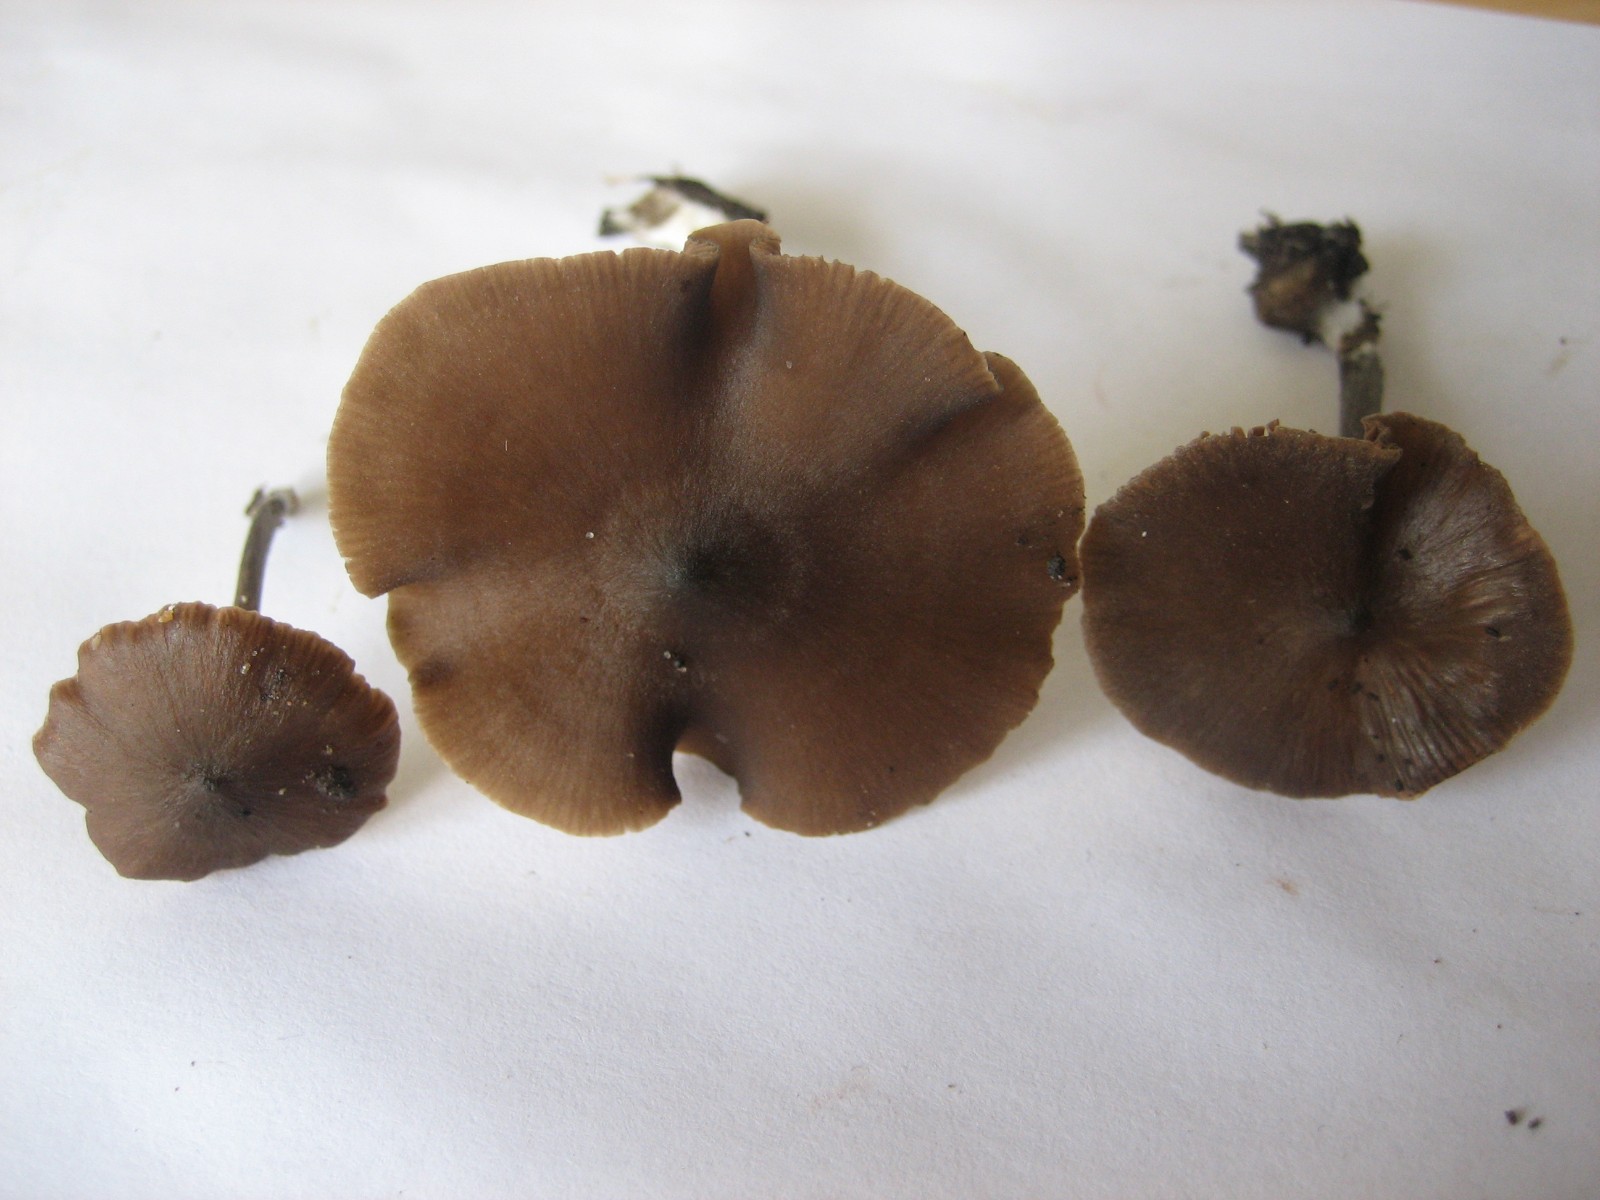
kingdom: Fungi
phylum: Basidiomycota
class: Agaricomycetes
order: Agaricales
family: Entolomataceae
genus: Entoloma
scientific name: Entoloma
